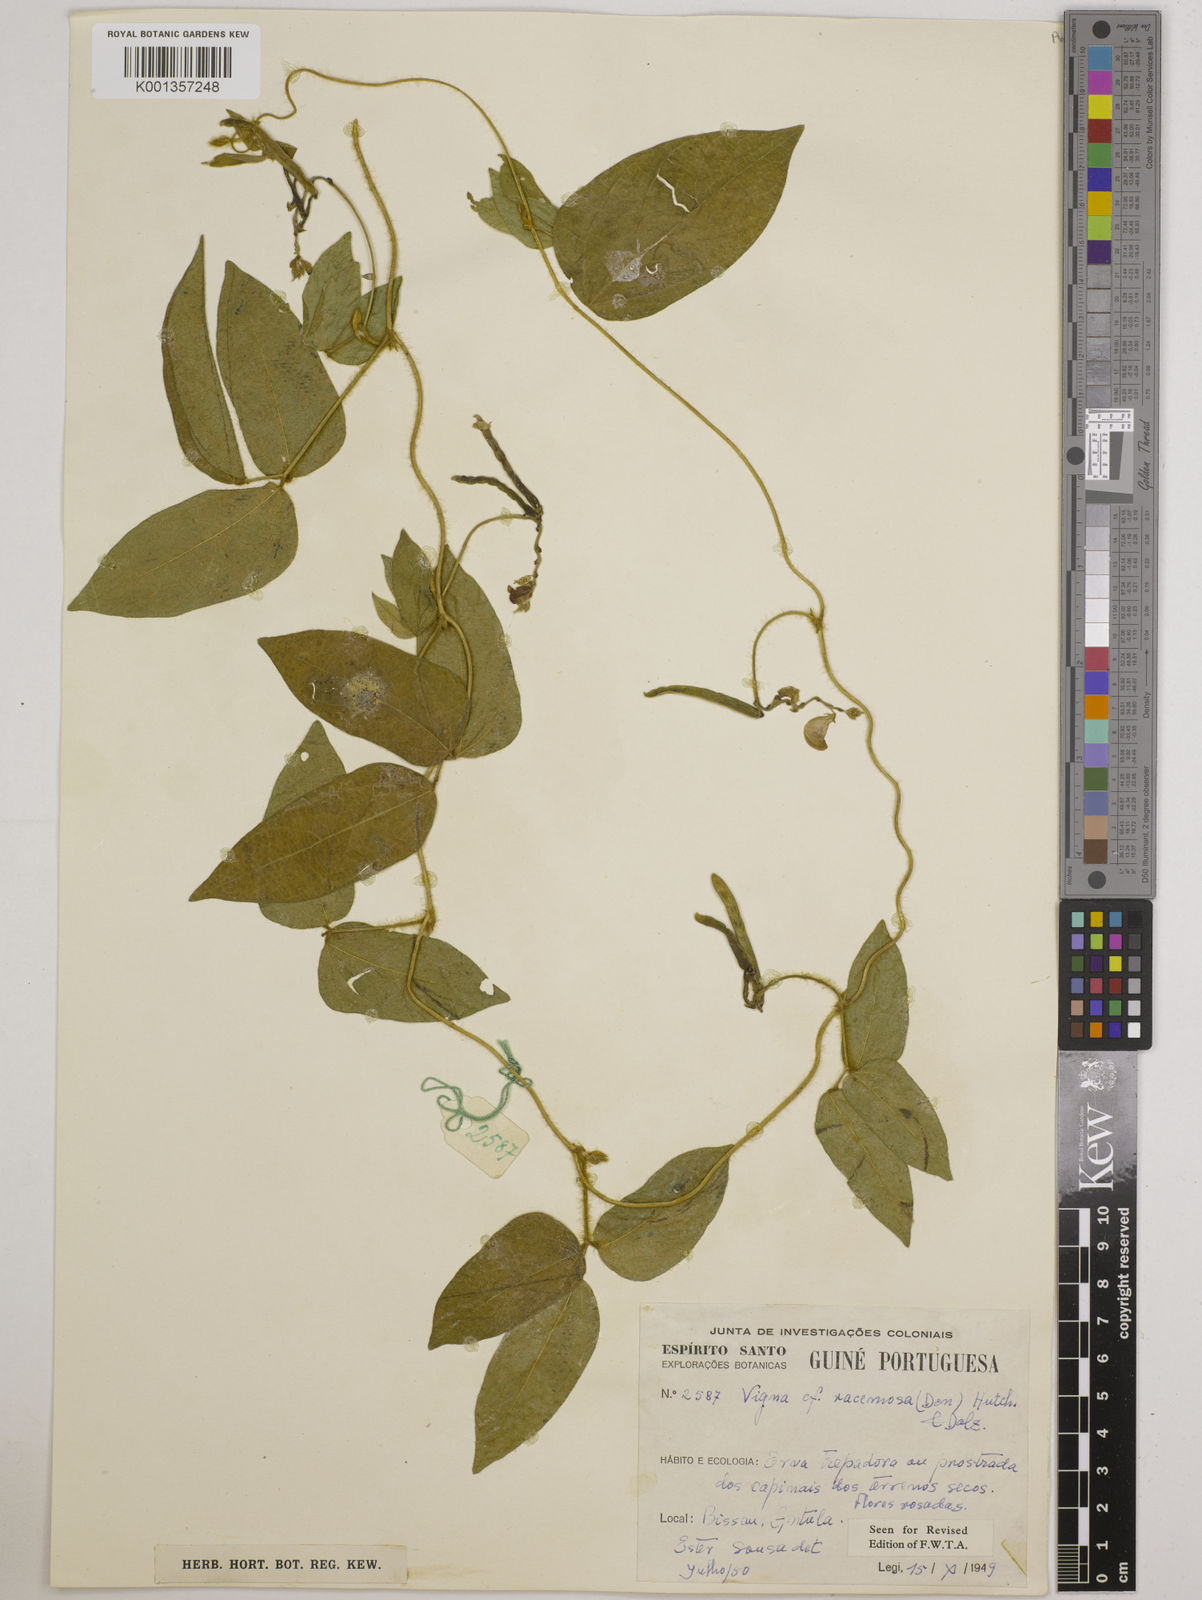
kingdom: Plantae
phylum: Tracheophyta
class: Magnoliopsida
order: Fabales
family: Fabaceae
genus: Vigna
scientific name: Vigna racemosa
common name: Beans not eaten
